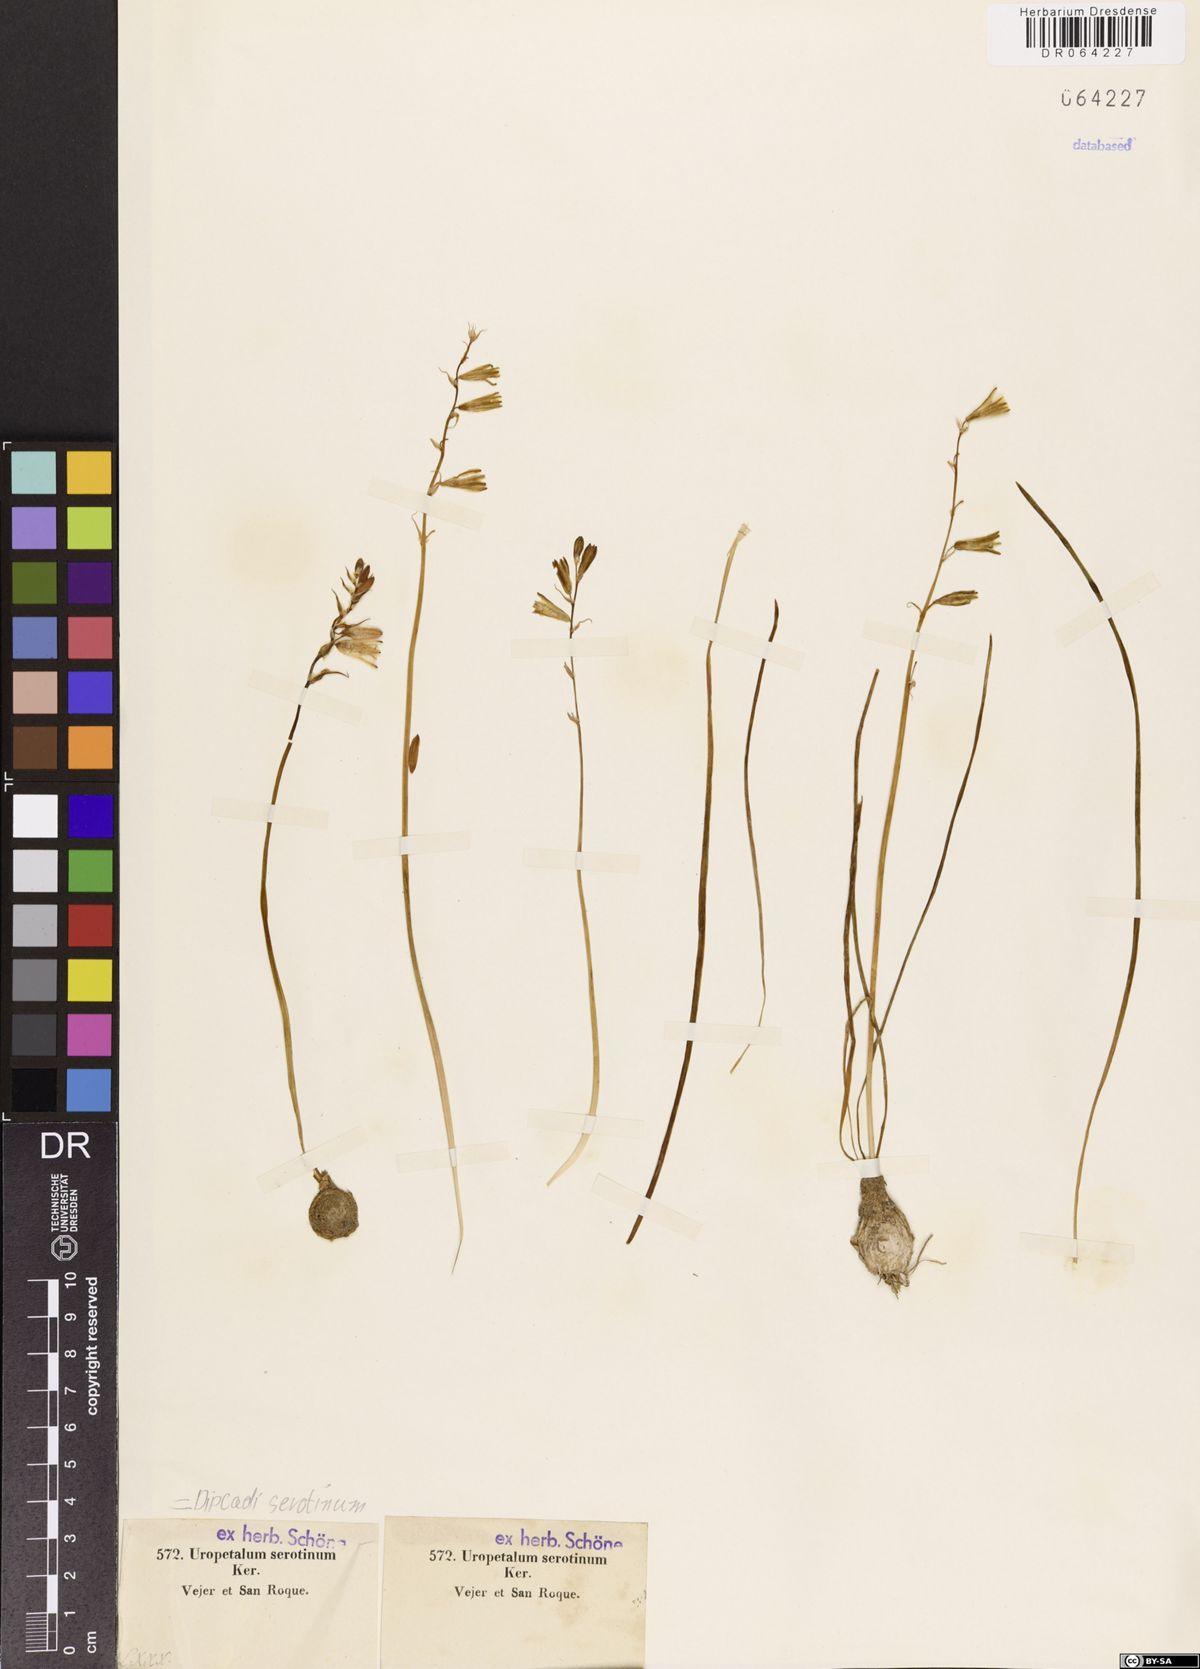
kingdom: Plantae
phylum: Tracheophyta
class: Liliopsida
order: Asparagales
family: Asparagaceae
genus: Dipcadi
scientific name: Dipcadi serotinum
